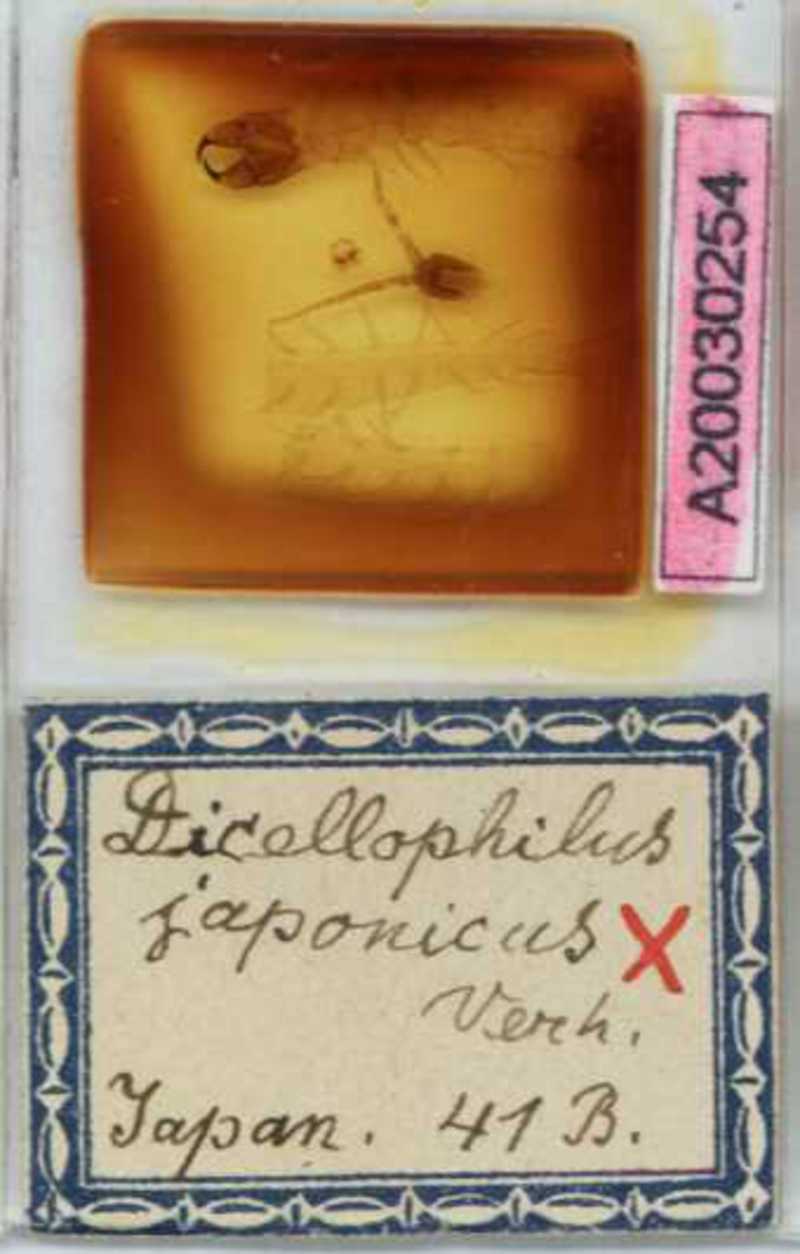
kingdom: Animalia
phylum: Arthropoda
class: Chilopoda
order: Geophilomorpha
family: Mecistocephalidae
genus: Dicellophilus
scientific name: Dicellophilus latifrons
